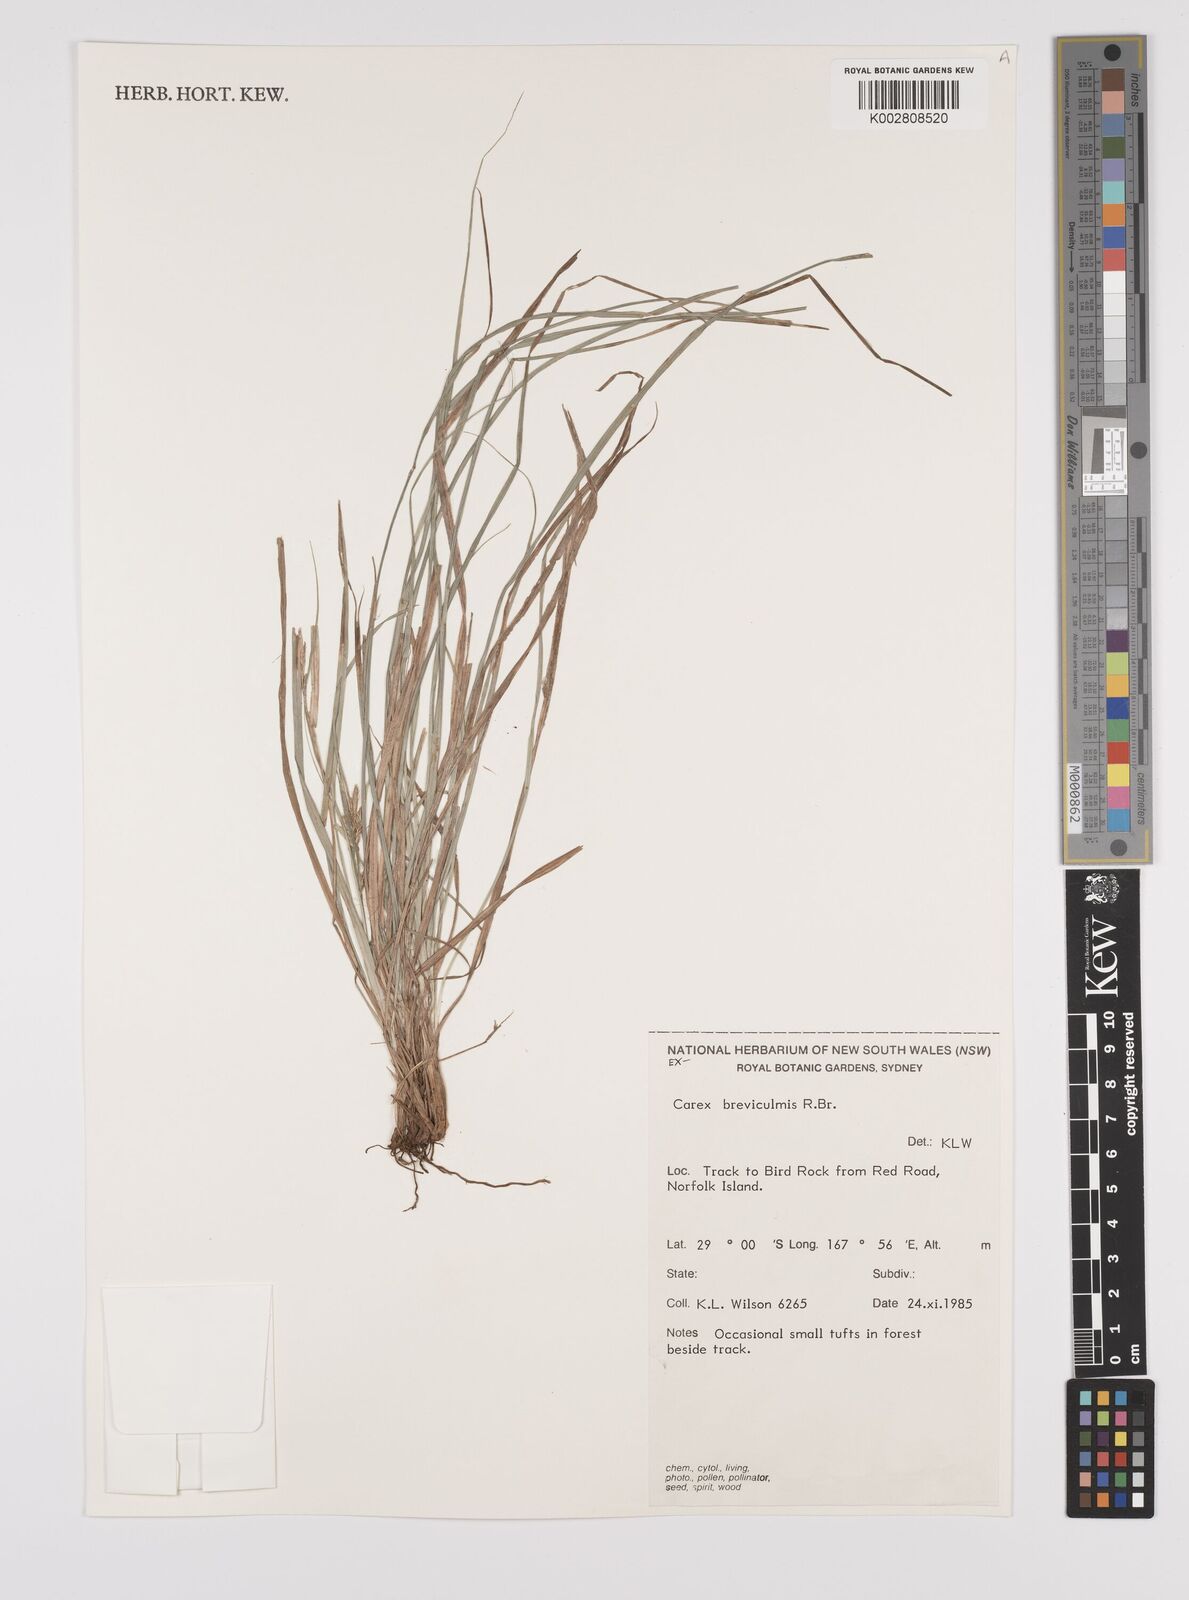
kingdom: Plantae
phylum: Tracheophyta
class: Liliopsida
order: Poales
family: Cyperaceae
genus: Carex
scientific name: Carex breviculmis
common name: Asian shortstem sedge
